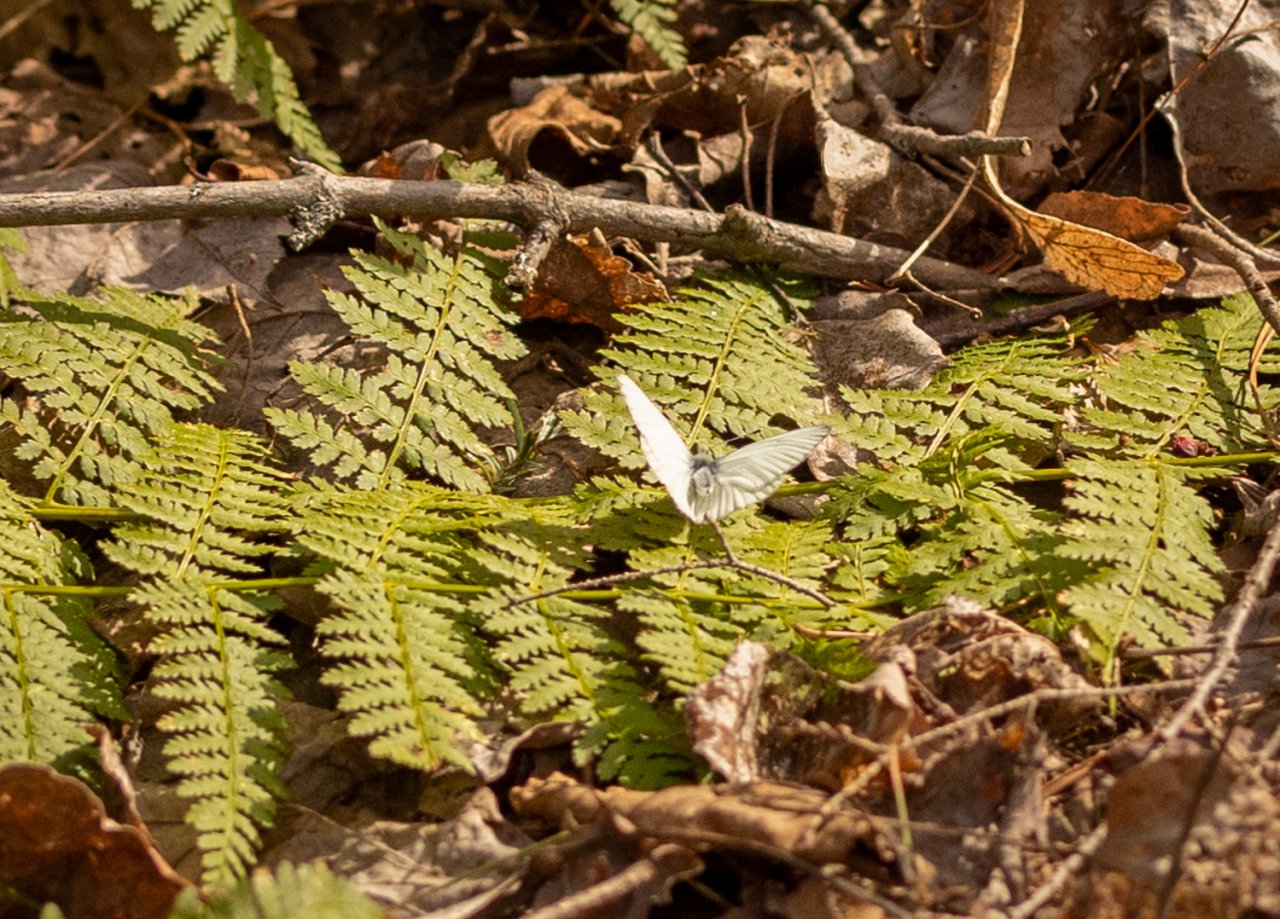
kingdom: Animalia
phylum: Arthropoda
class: Insecta
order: Lepidoptera
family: Pieridae
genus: Pieris
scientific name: Pieris
